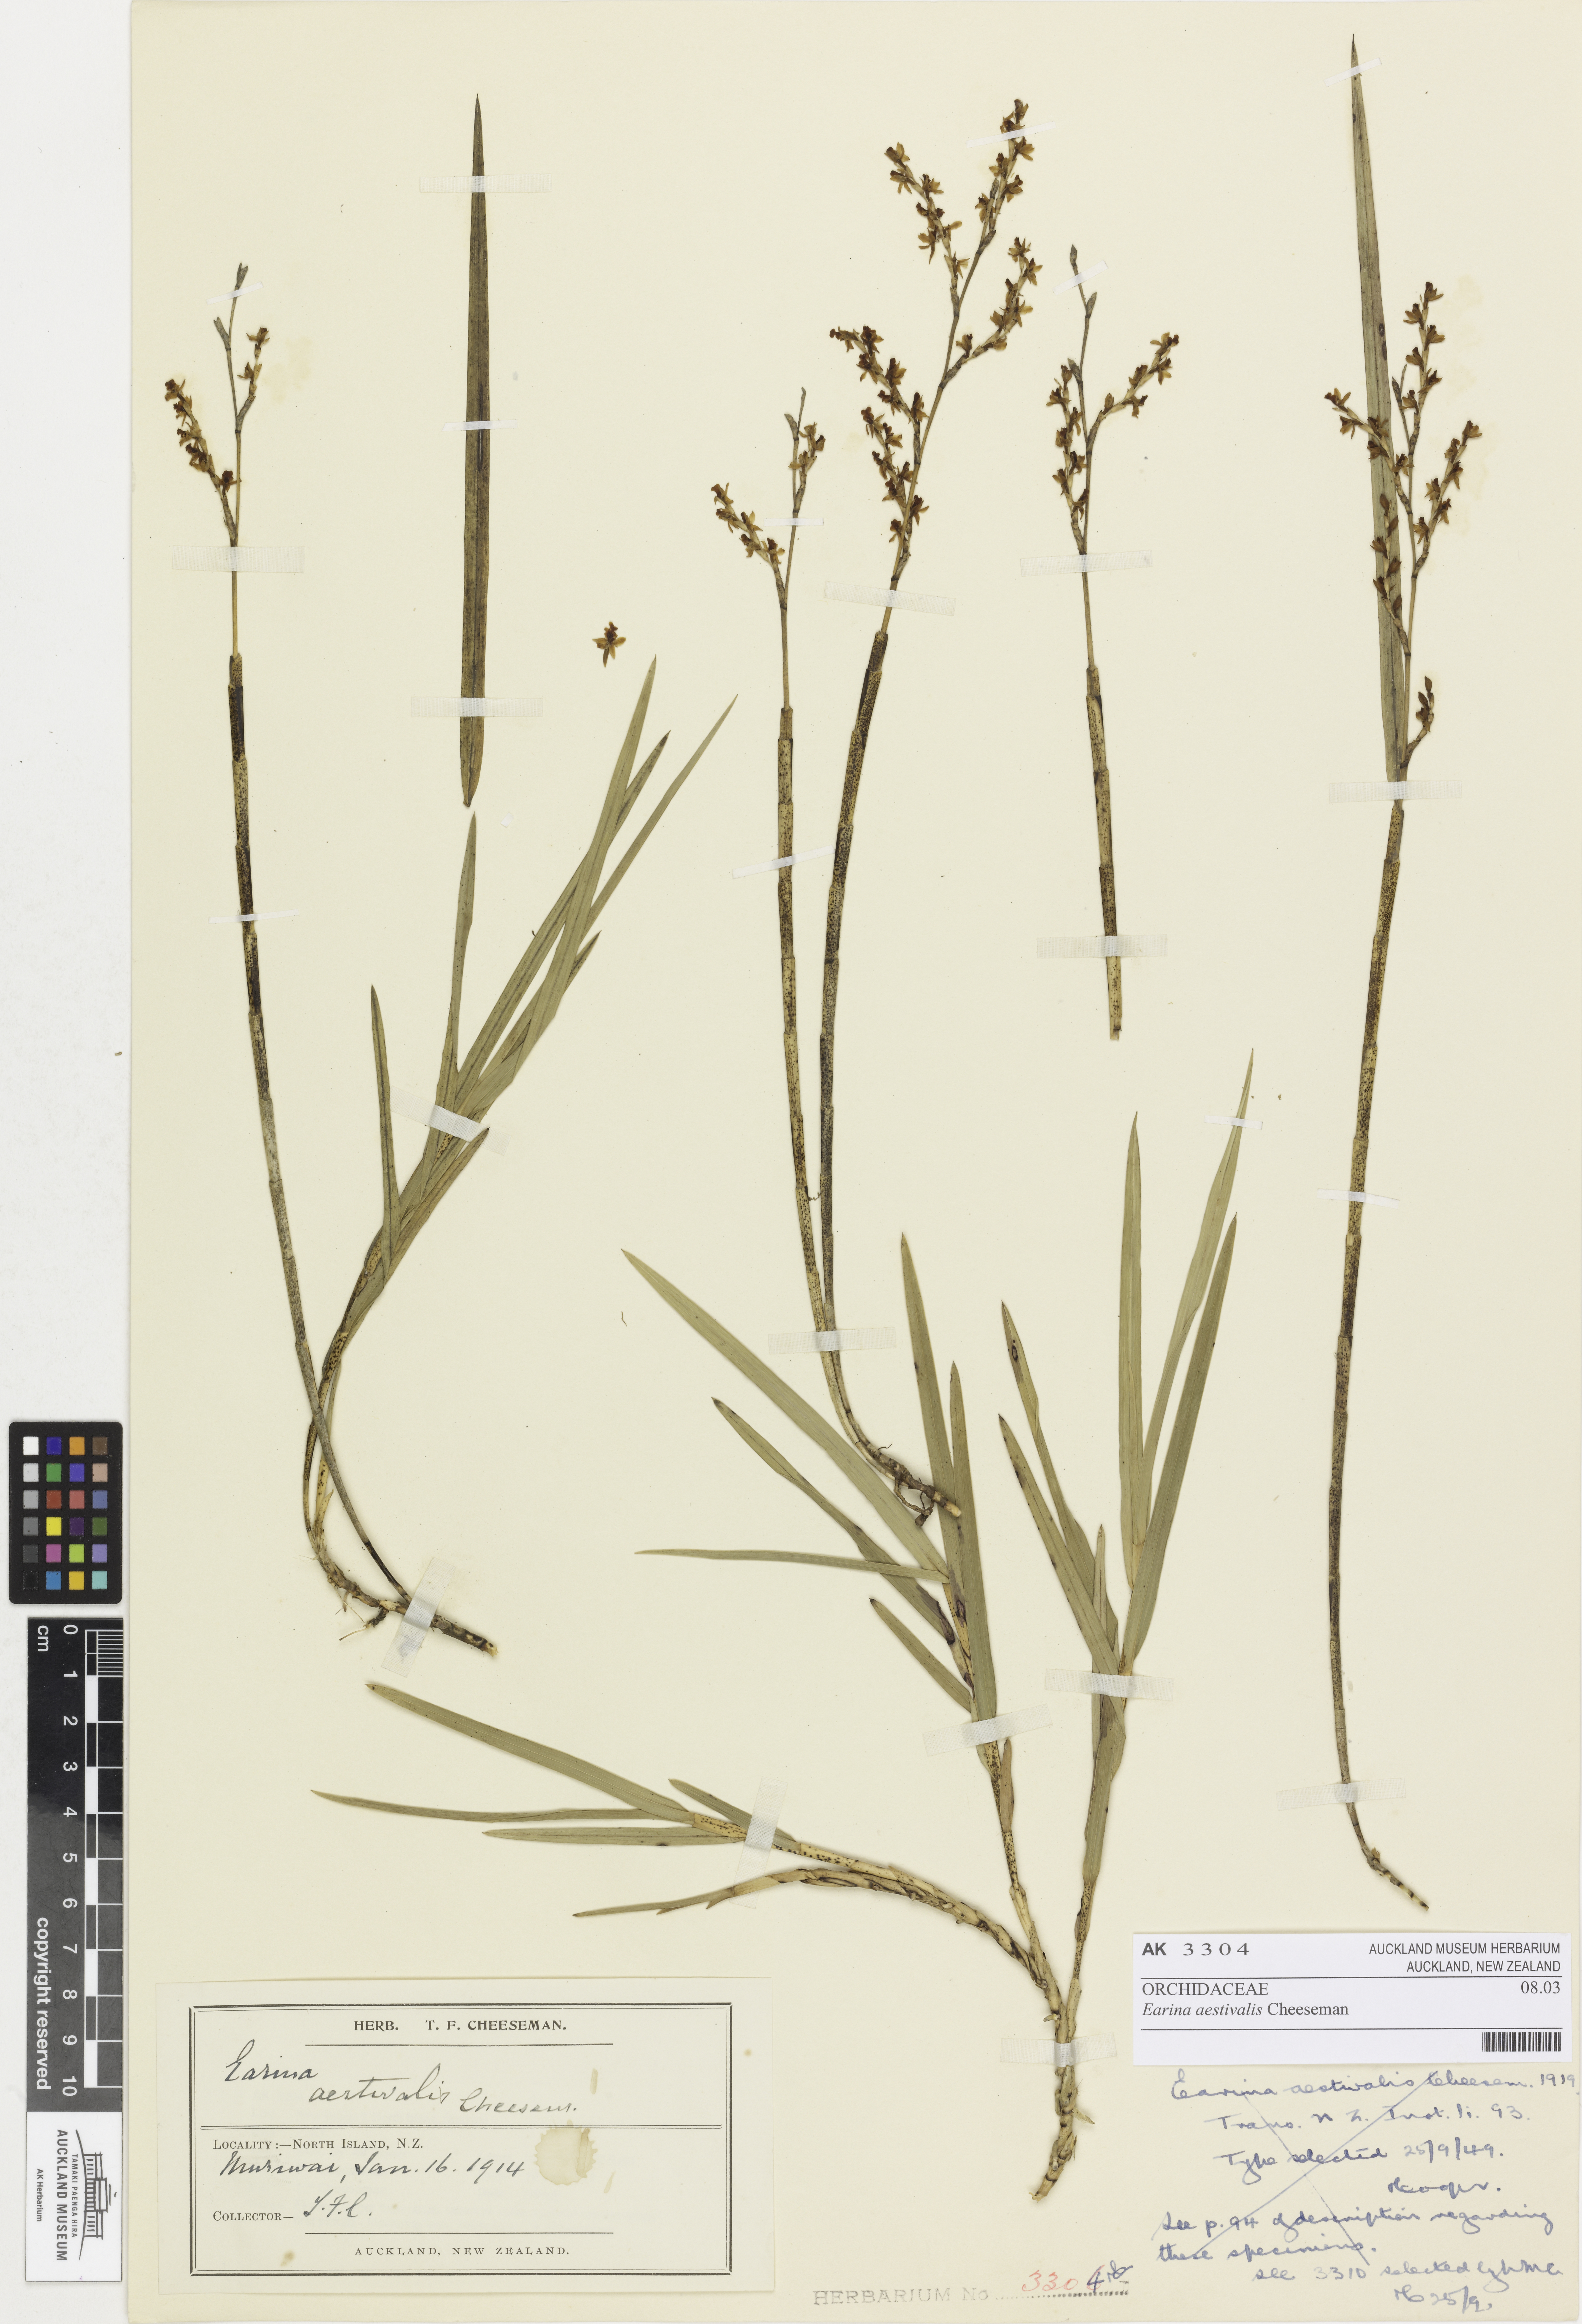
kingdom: Plantae
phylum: Tracheophyta
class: Liliopsida
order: Asparagales
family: Orchidaceae
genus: Earina
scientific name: Earina aestivalis
